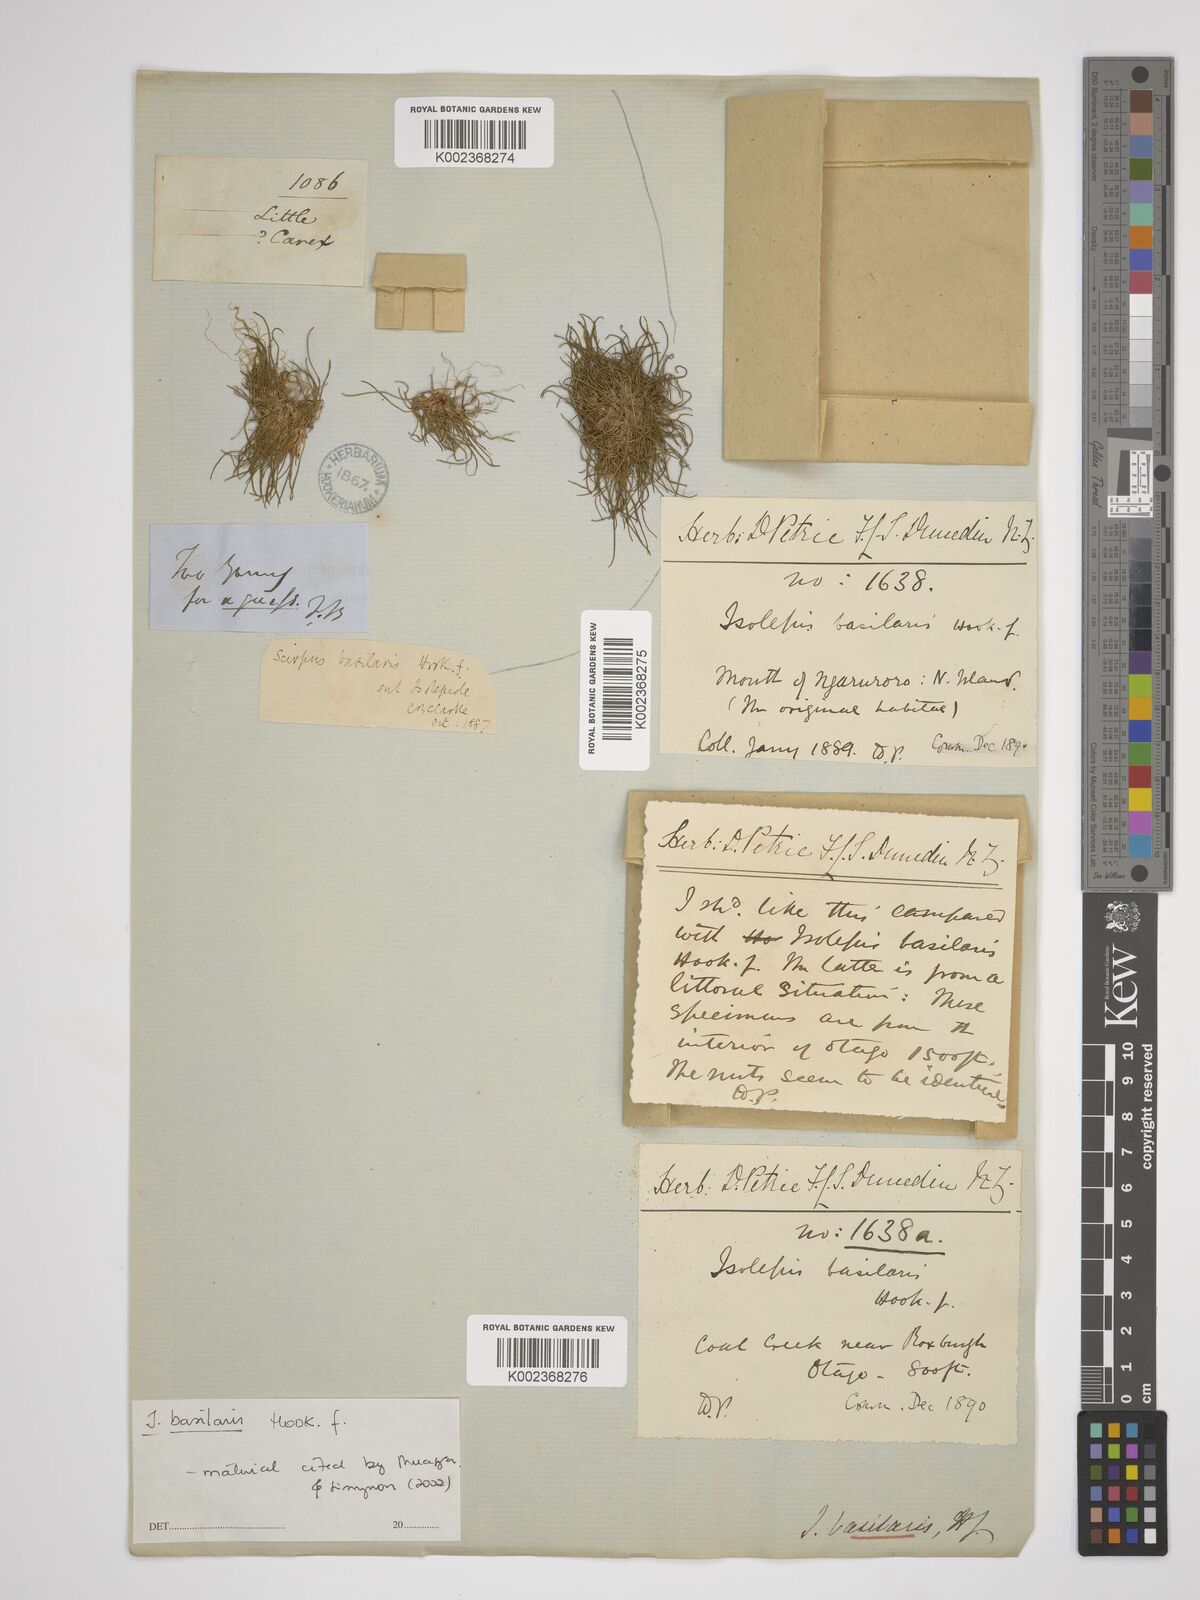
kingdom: Plantae
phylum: Tracheophyta
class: Liliopsida
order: Poales
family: Cyperaceae
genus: Isolepis
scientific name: Isolepis basilaris
